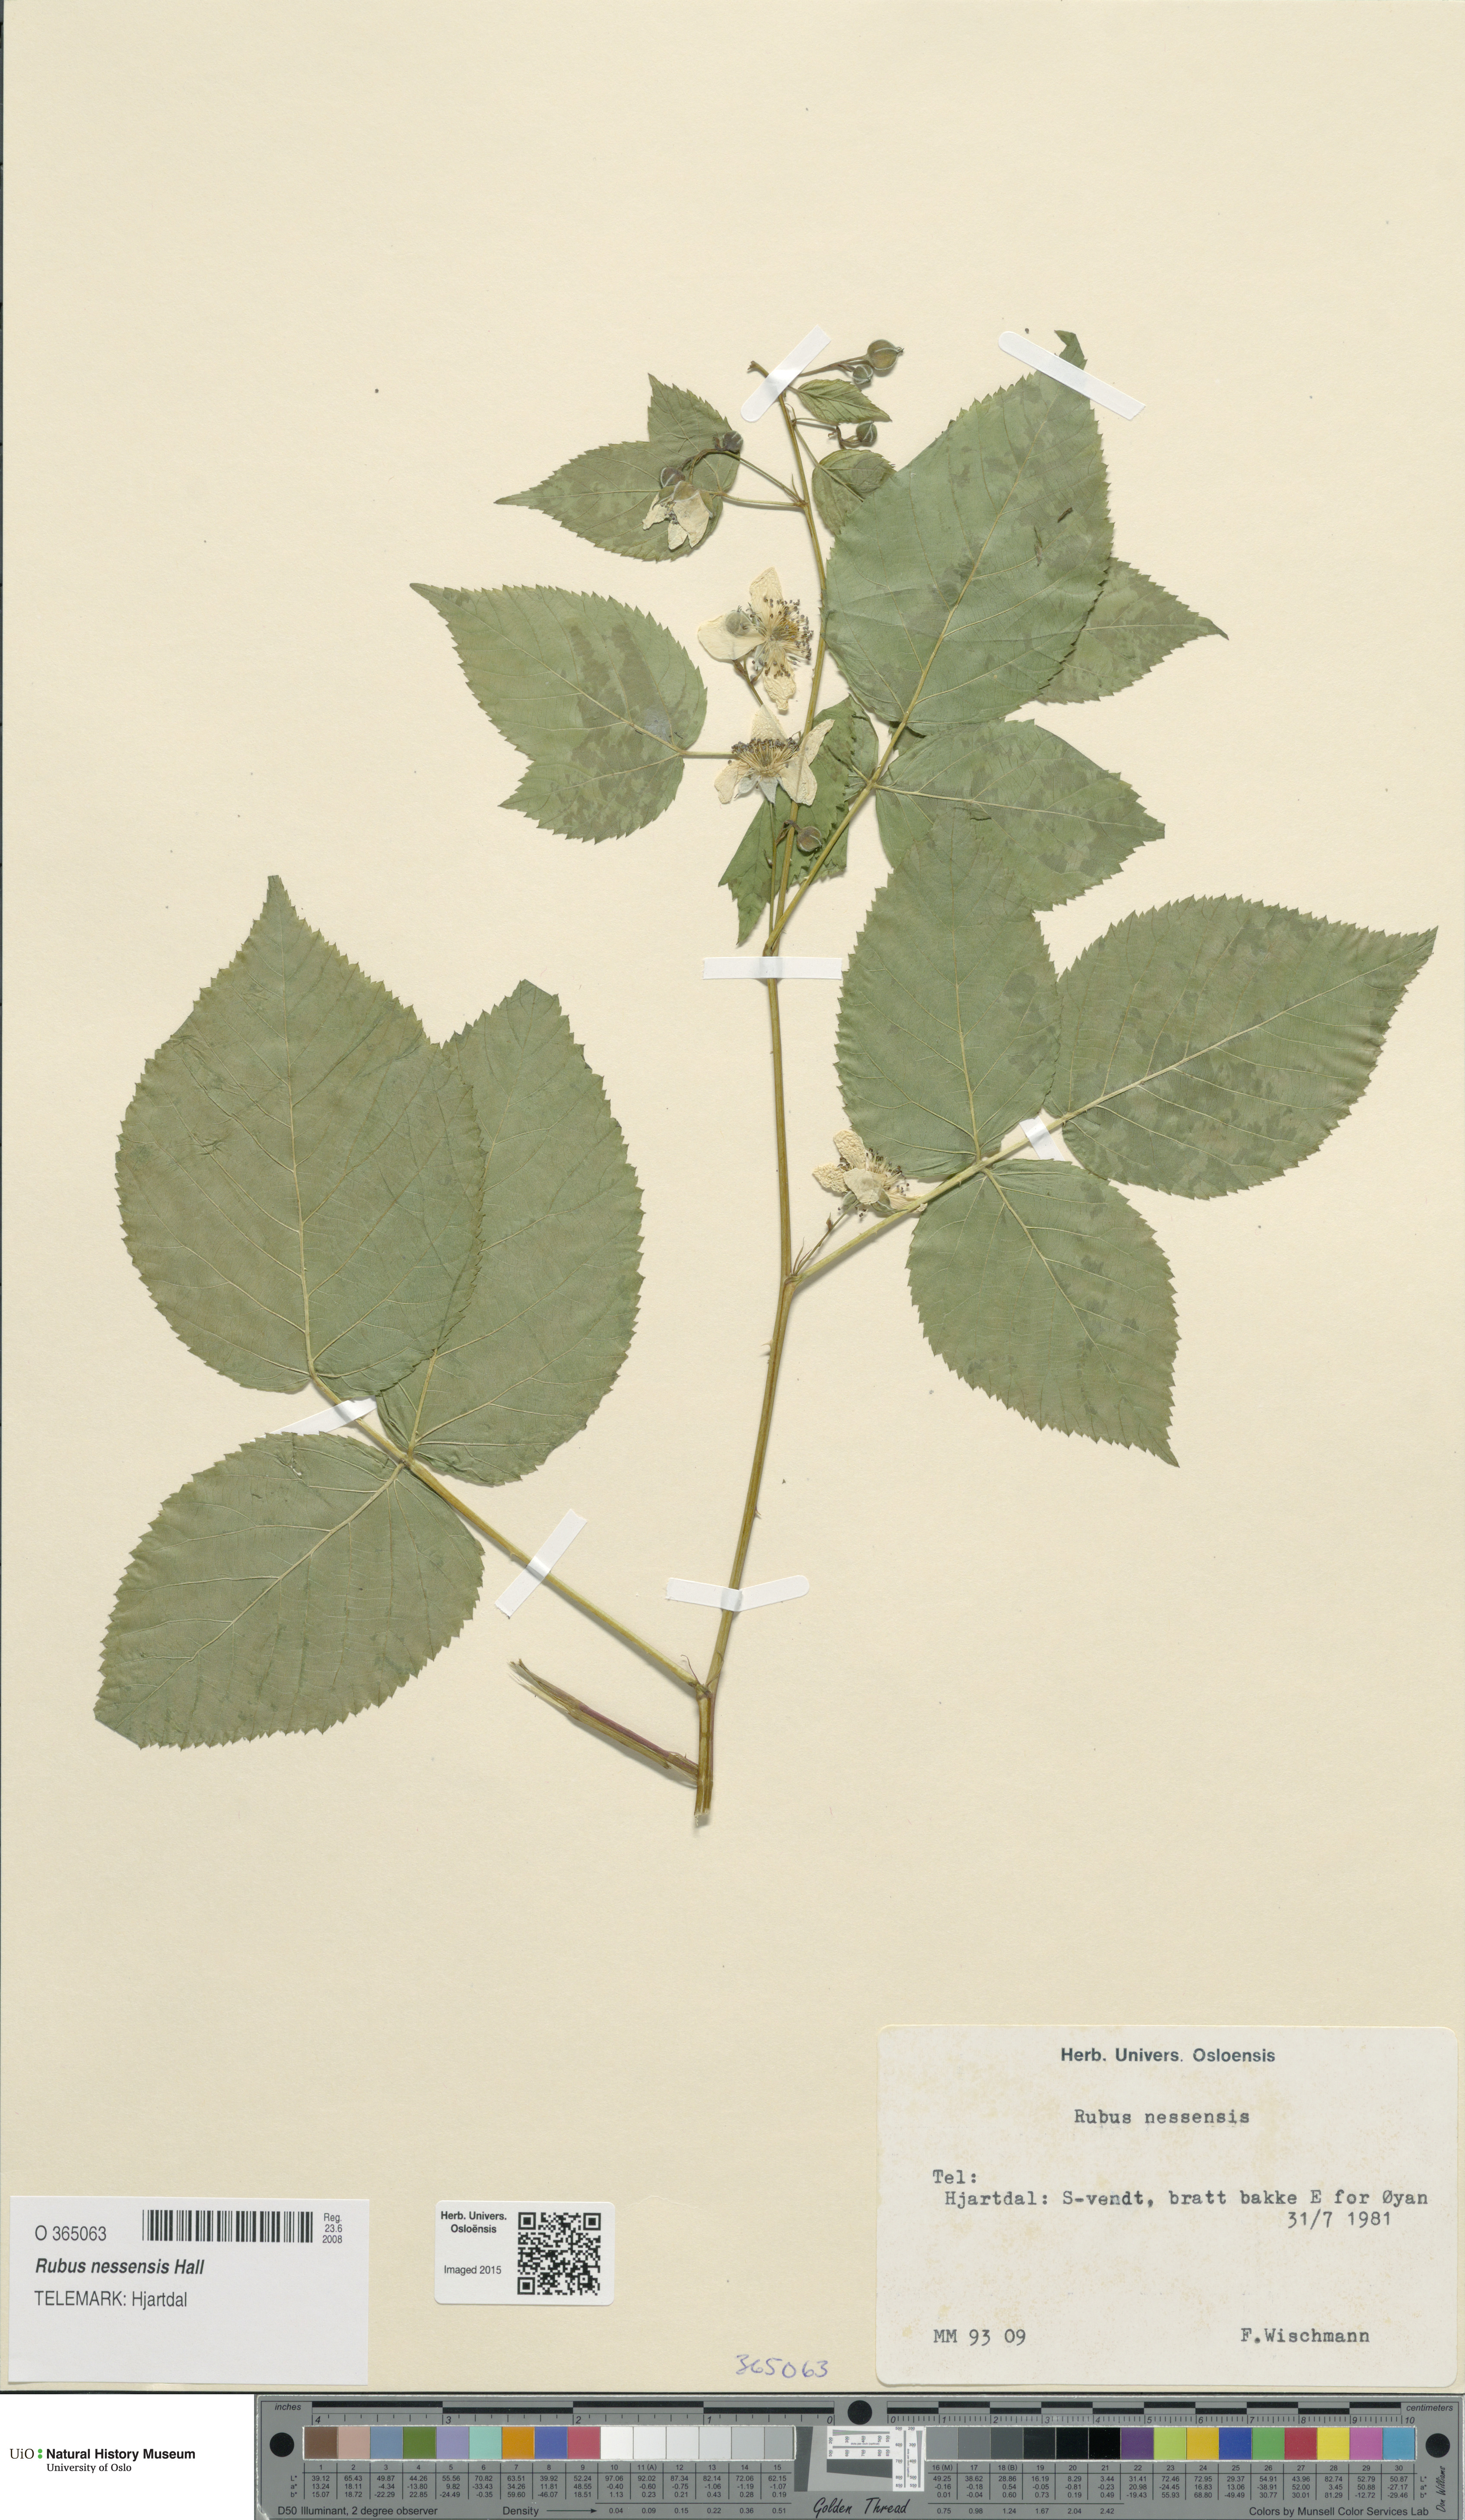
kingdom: Plantae
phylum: Tracheophyta
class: Magnoliopsida
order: Rosales
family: Rosaceae
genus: Rubus
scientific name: Rubus polonicus
